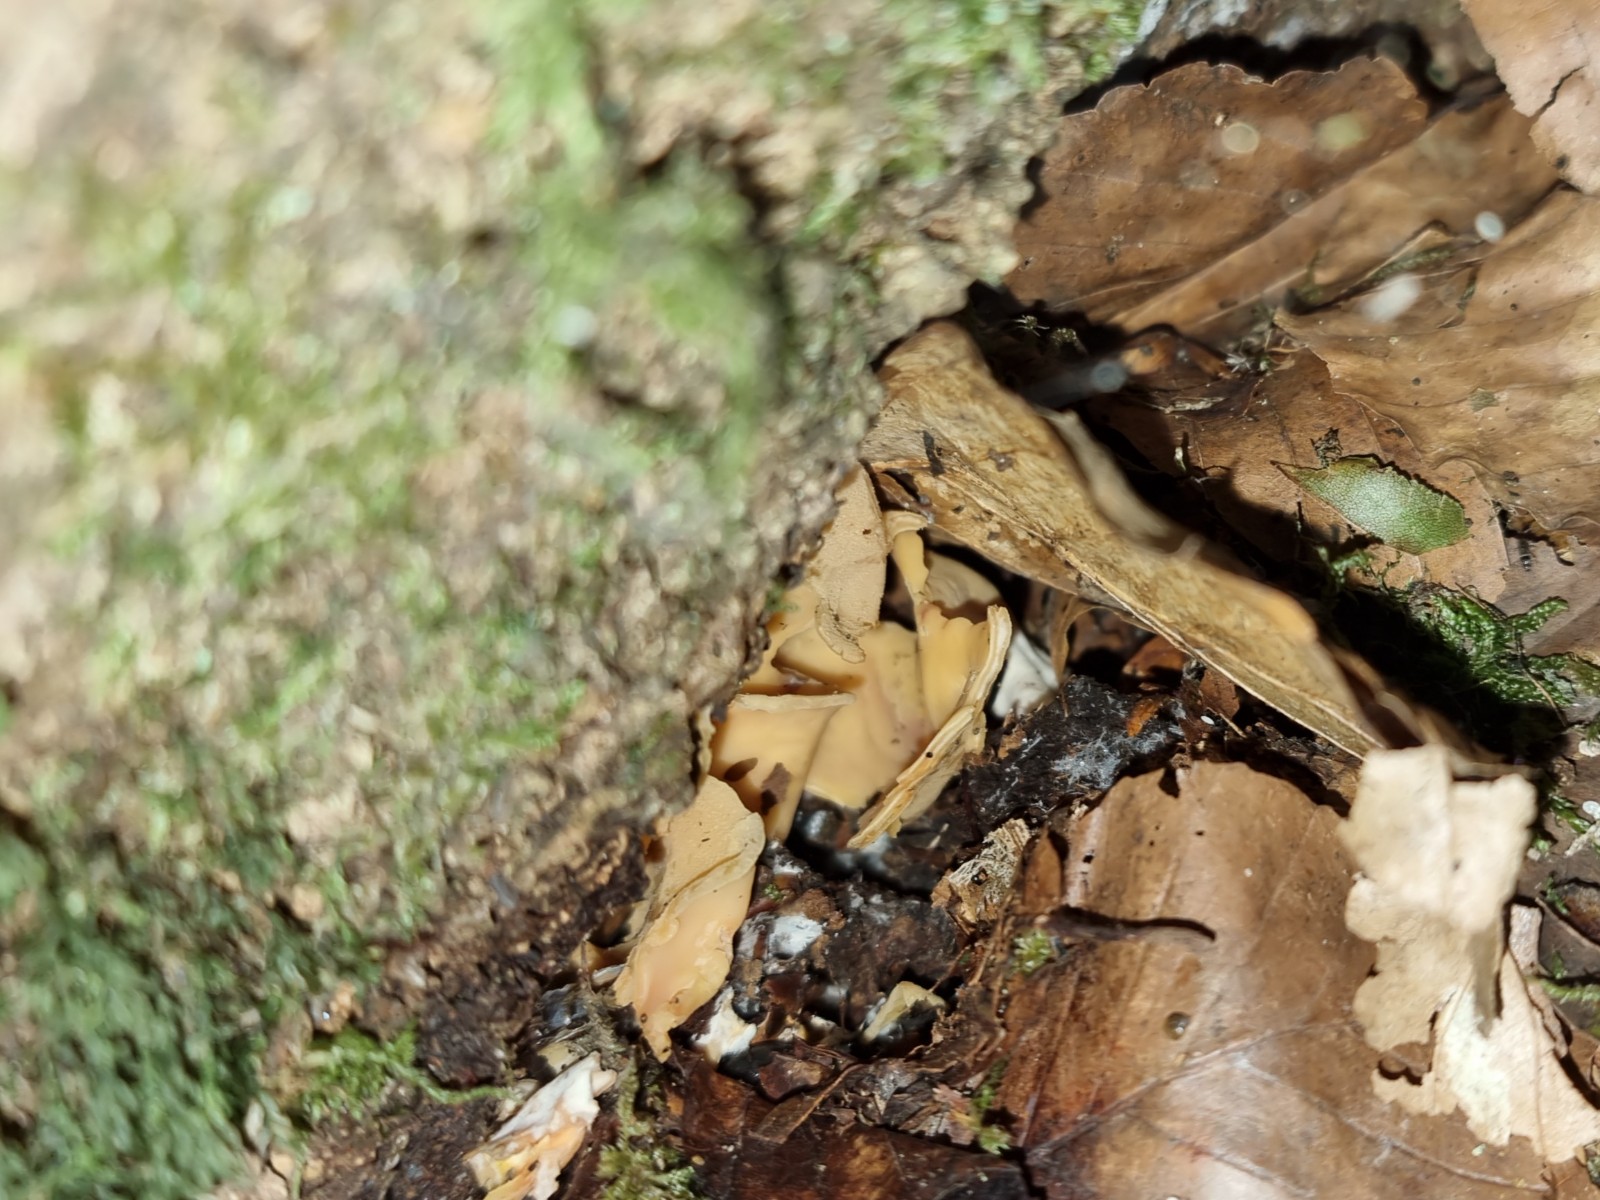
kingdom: Fungi
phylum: Ascomycota
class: Pezizomycetes
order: Pezizales
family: Otideaceae
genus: Otidea
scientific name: Otidea onotica
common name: æsel-ørebæger
